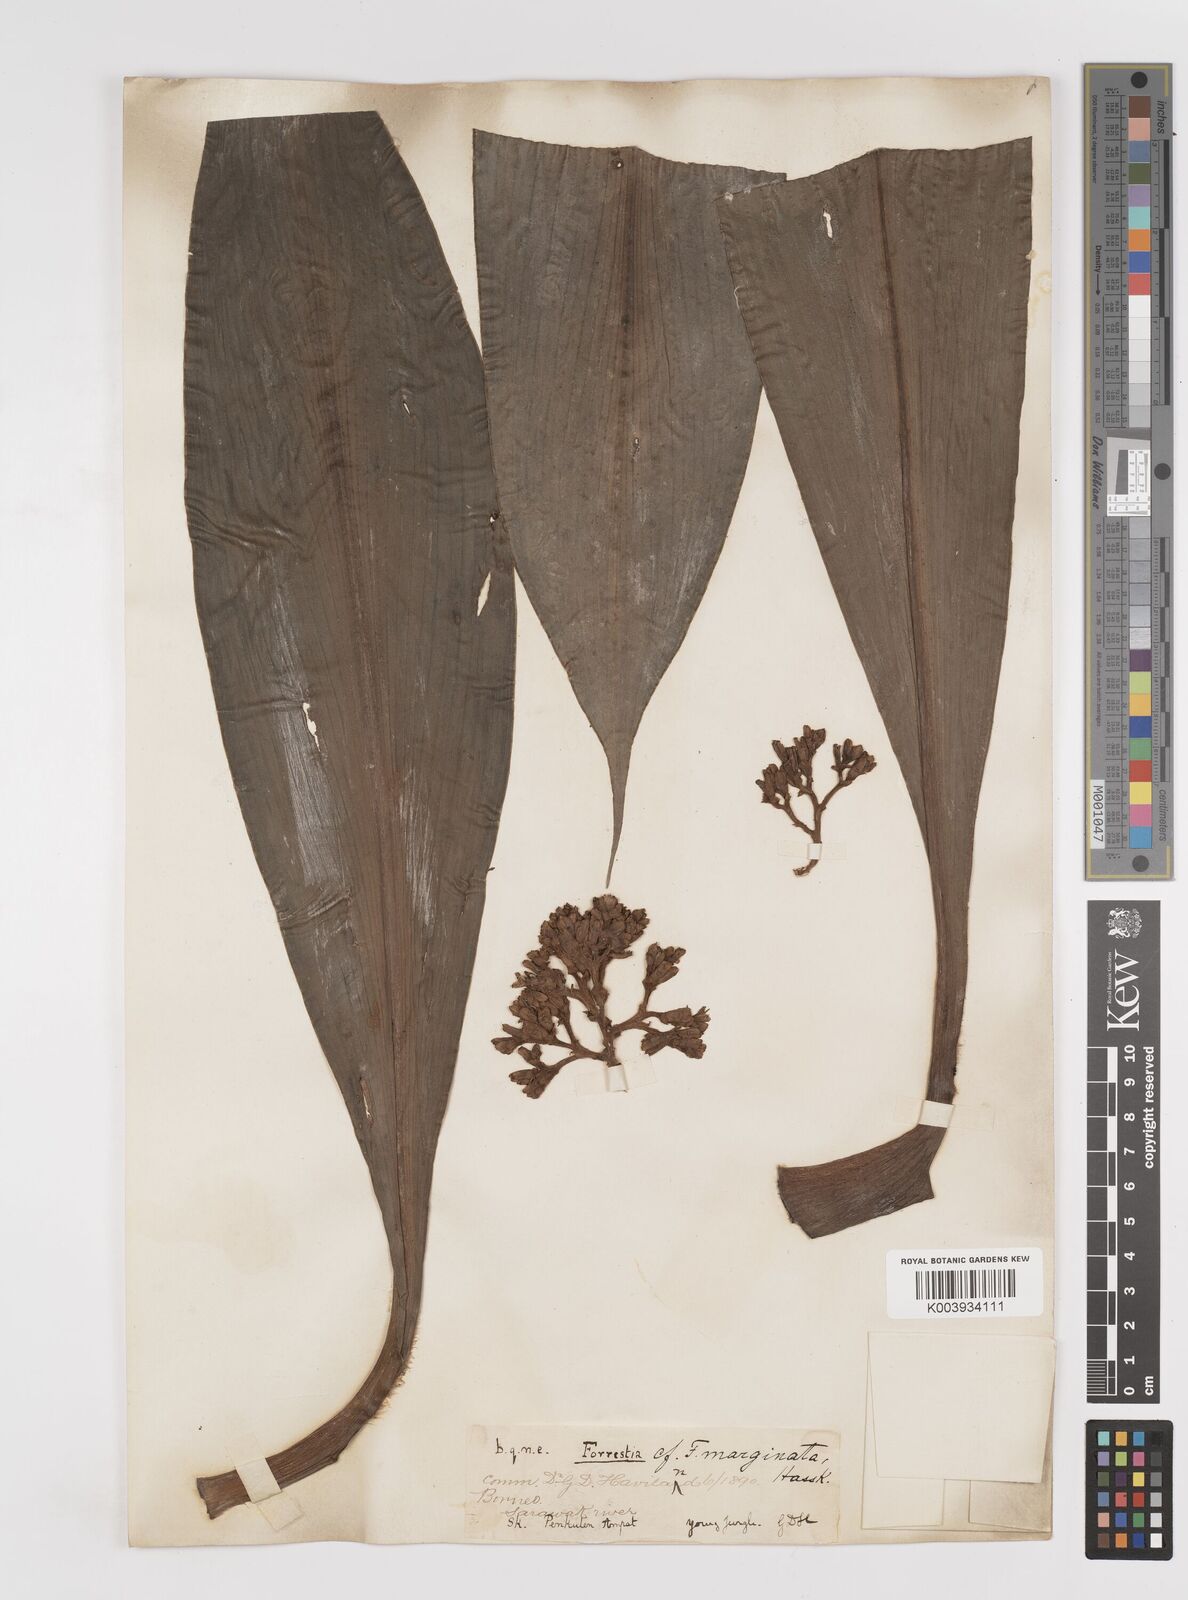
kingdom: Plantae
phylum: Tracheophyta
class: Liliopsida
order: Commelinales
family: Commelinaceae
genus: Amischotolype
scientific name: Amischotolype
